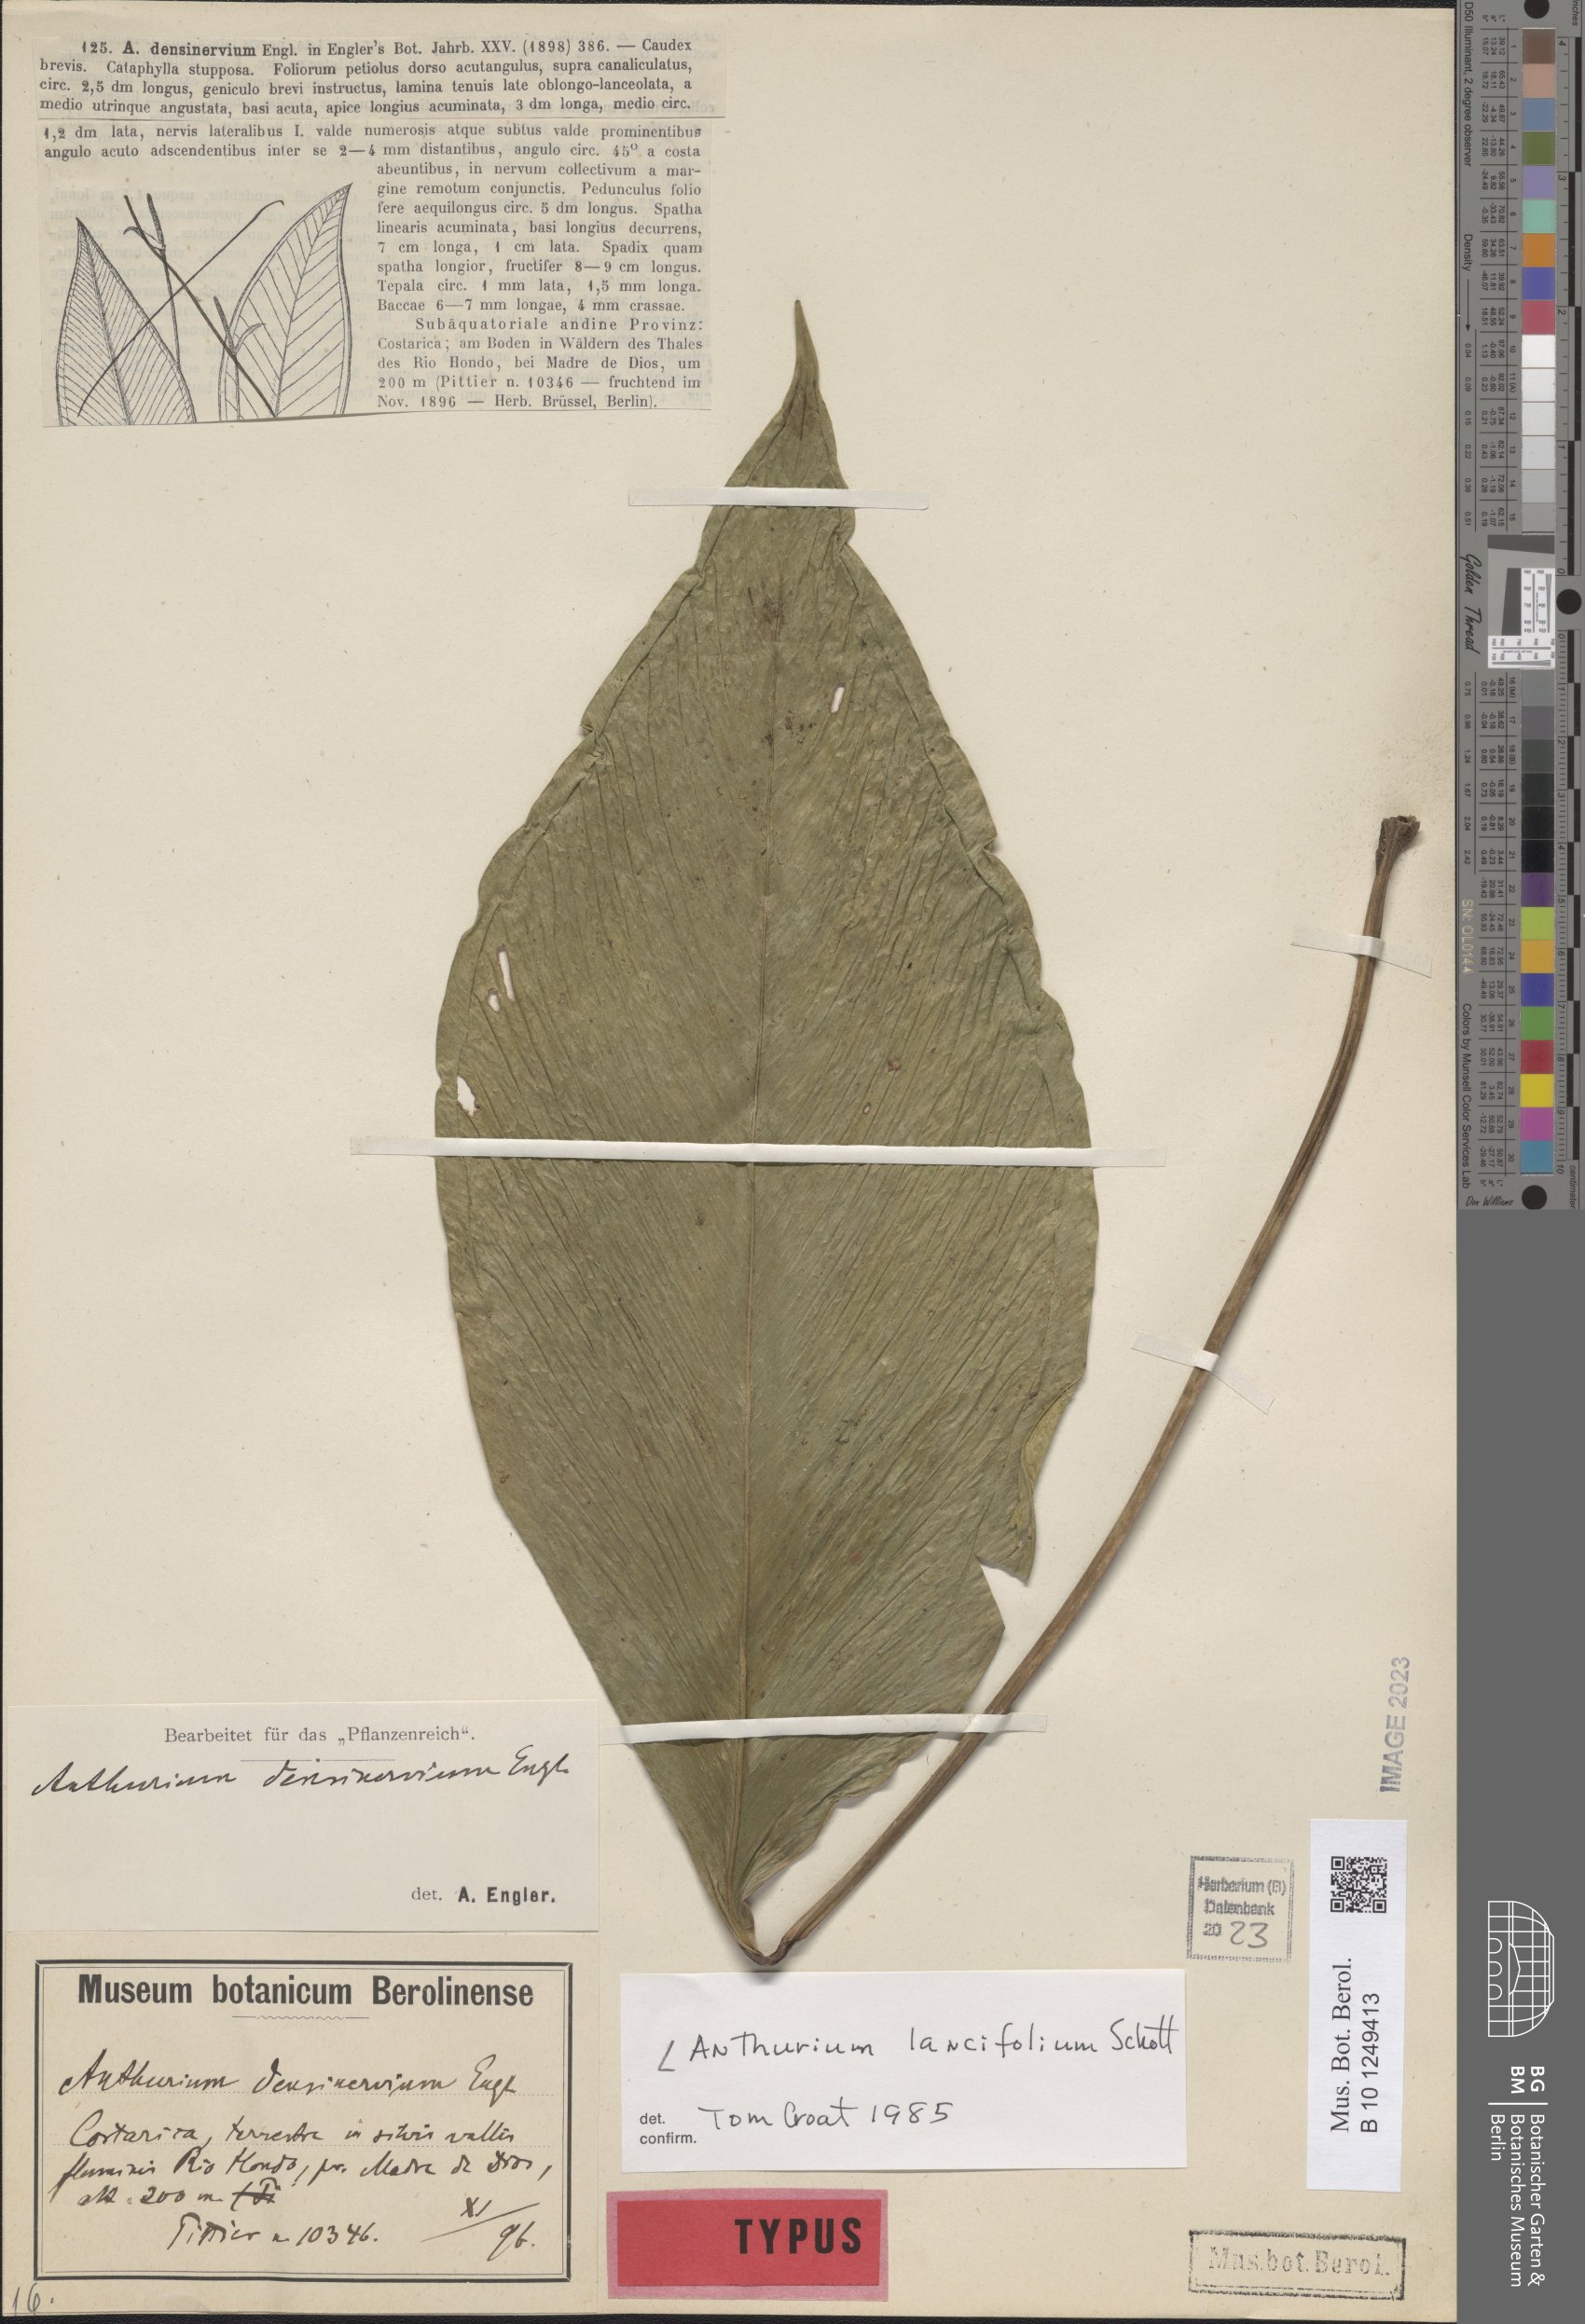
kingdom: Plantae
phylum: Tracheophyta
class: Liliopsida
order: Alismatales
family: Araceae
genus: Anthurium
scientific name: Anthurium lancifolium
